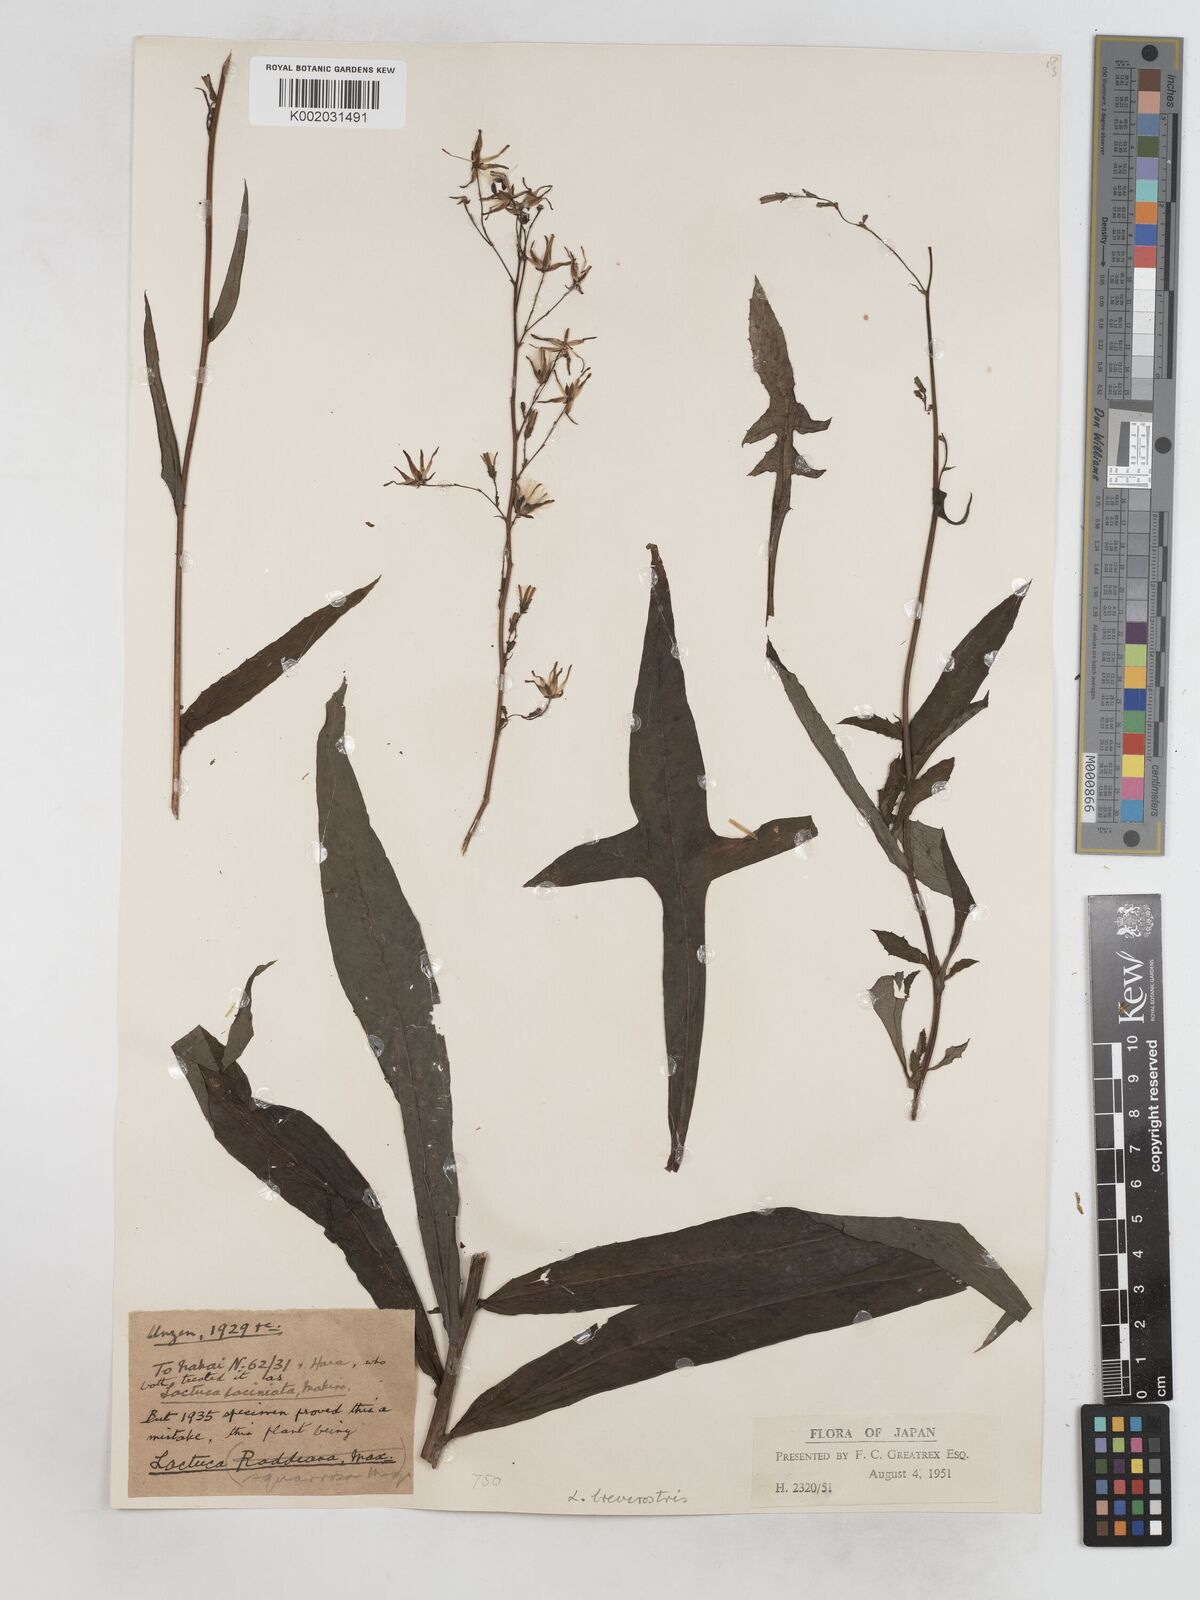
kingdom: Plantae
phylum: Tracheophyta
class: Magnoliopsida
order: Asterales
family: Asteraceae
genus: Lactuca
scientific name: Lactuca indica
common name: Wild lettuce
